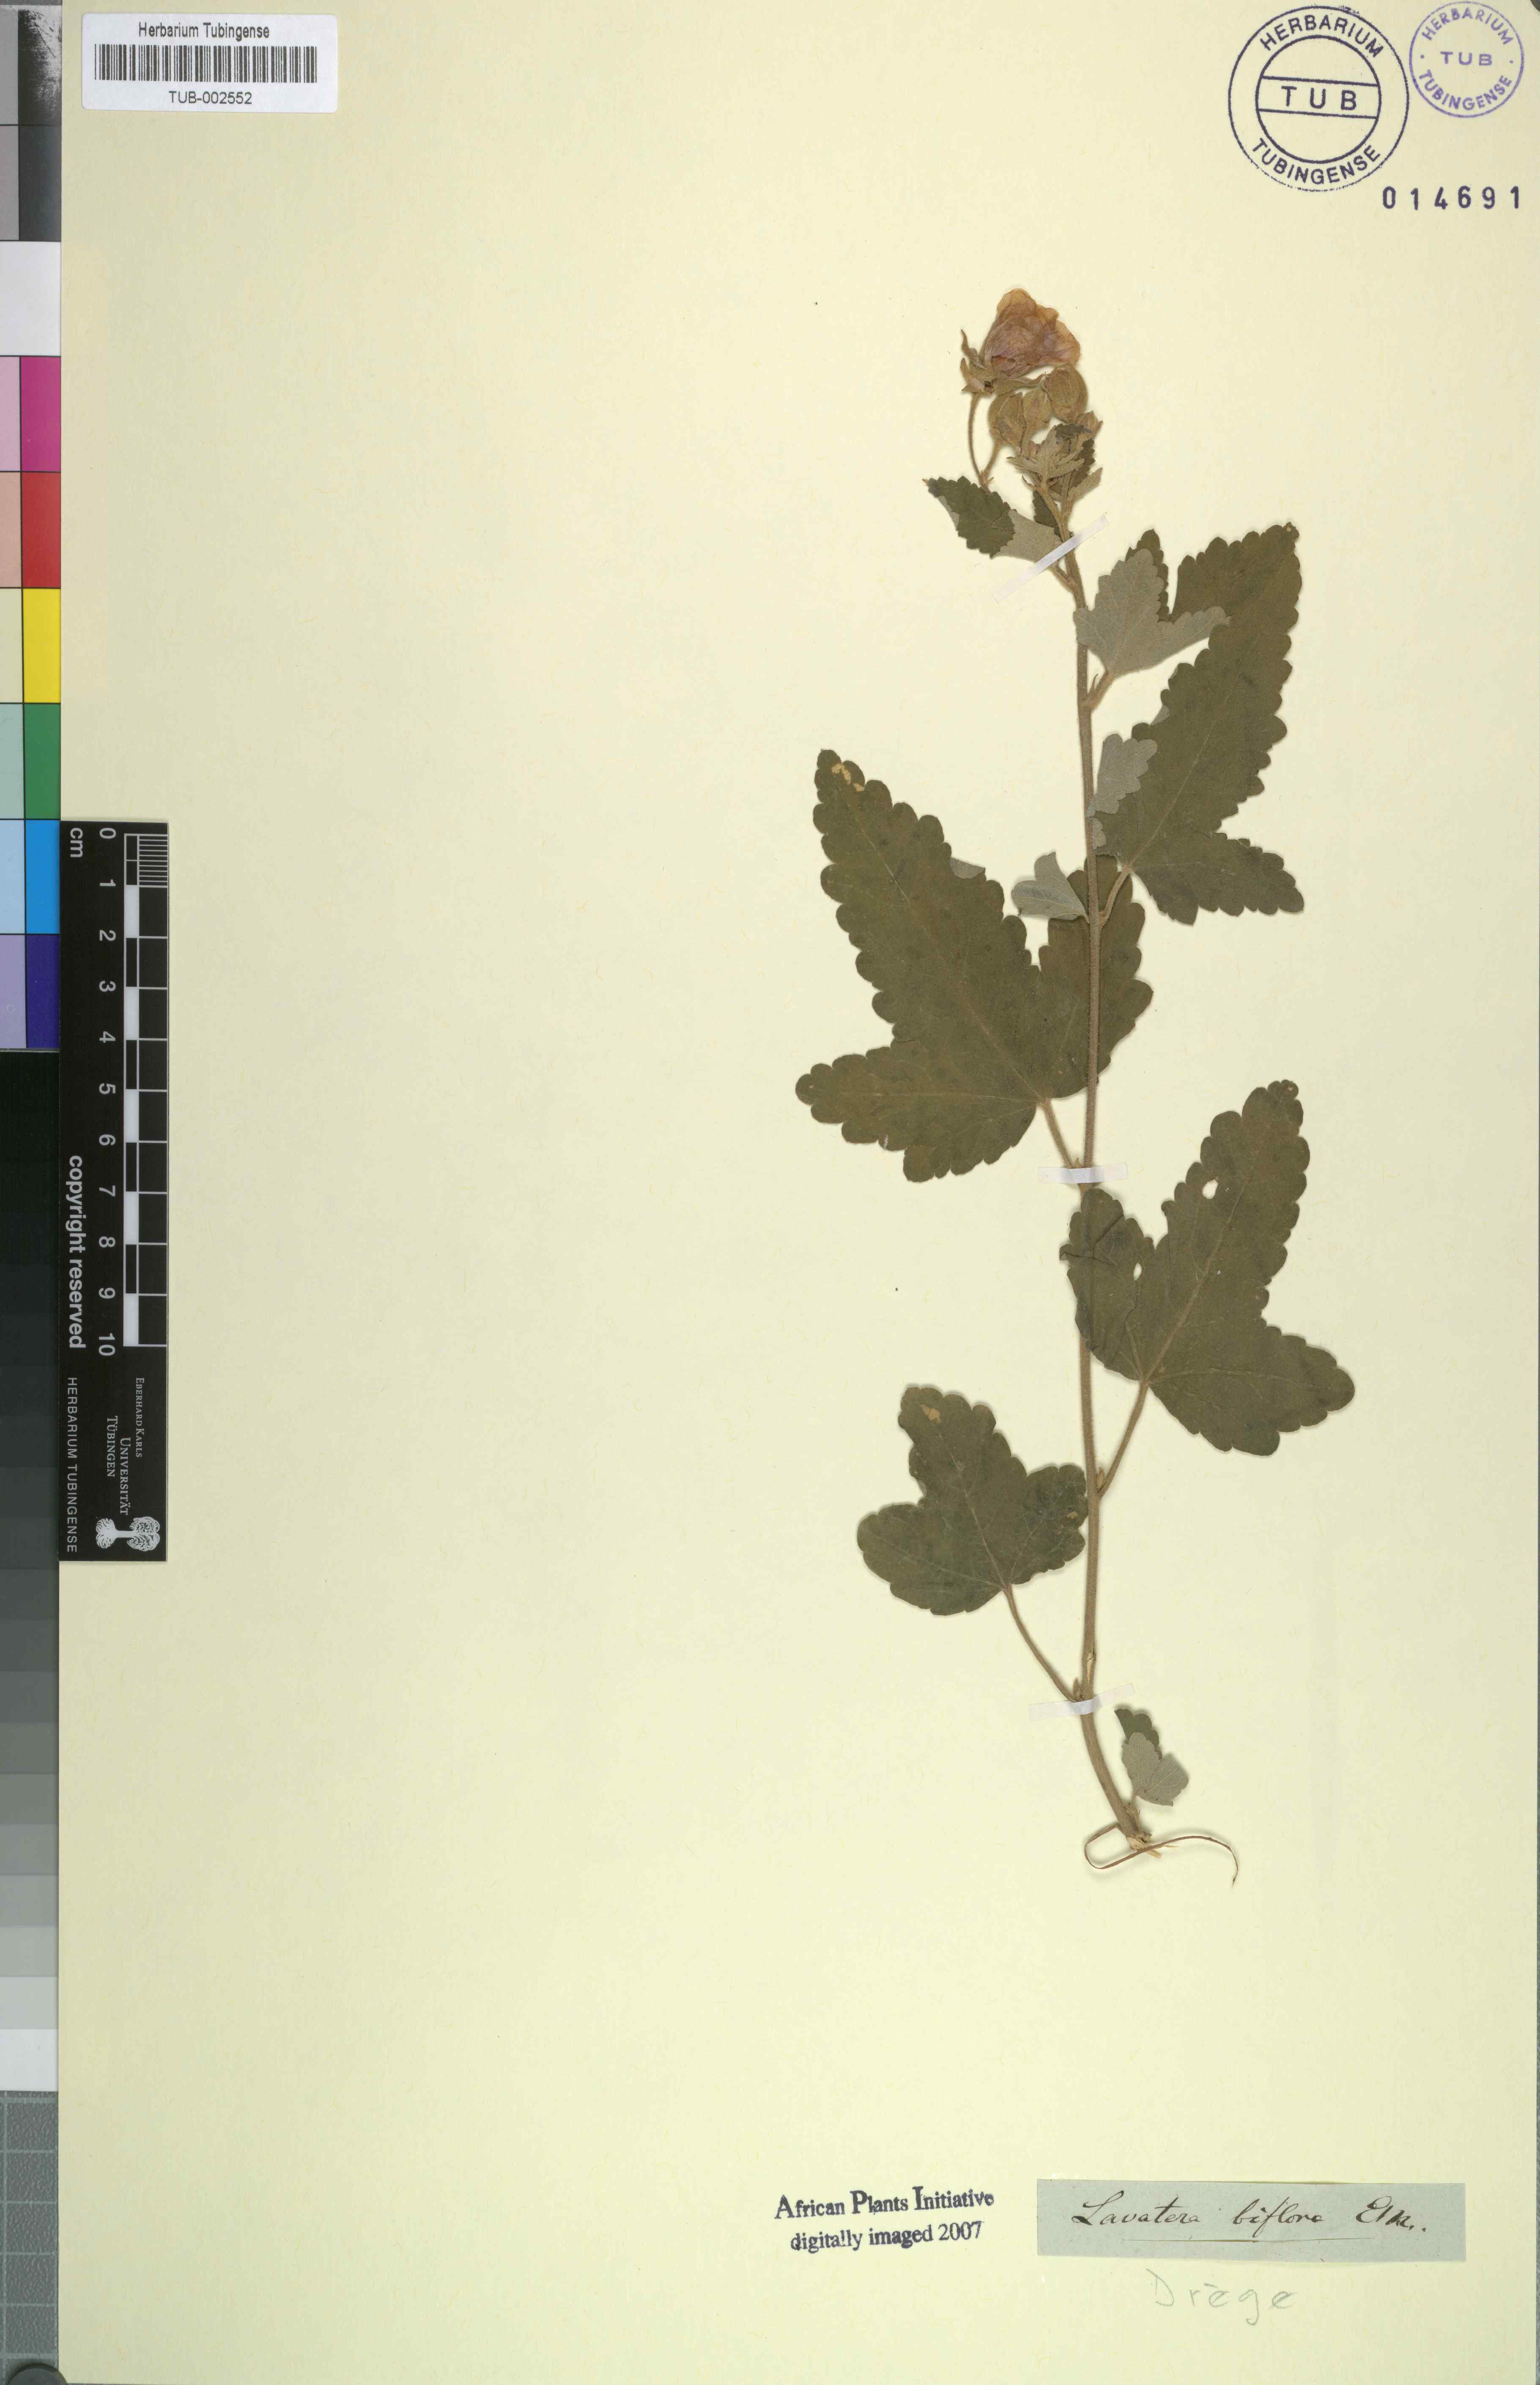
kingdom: Plantae
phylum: Tracheophyta
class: Magnoliopsida
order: Malvales
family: Malvaceae
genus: Anisodontea
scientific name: Anisodontea julii
